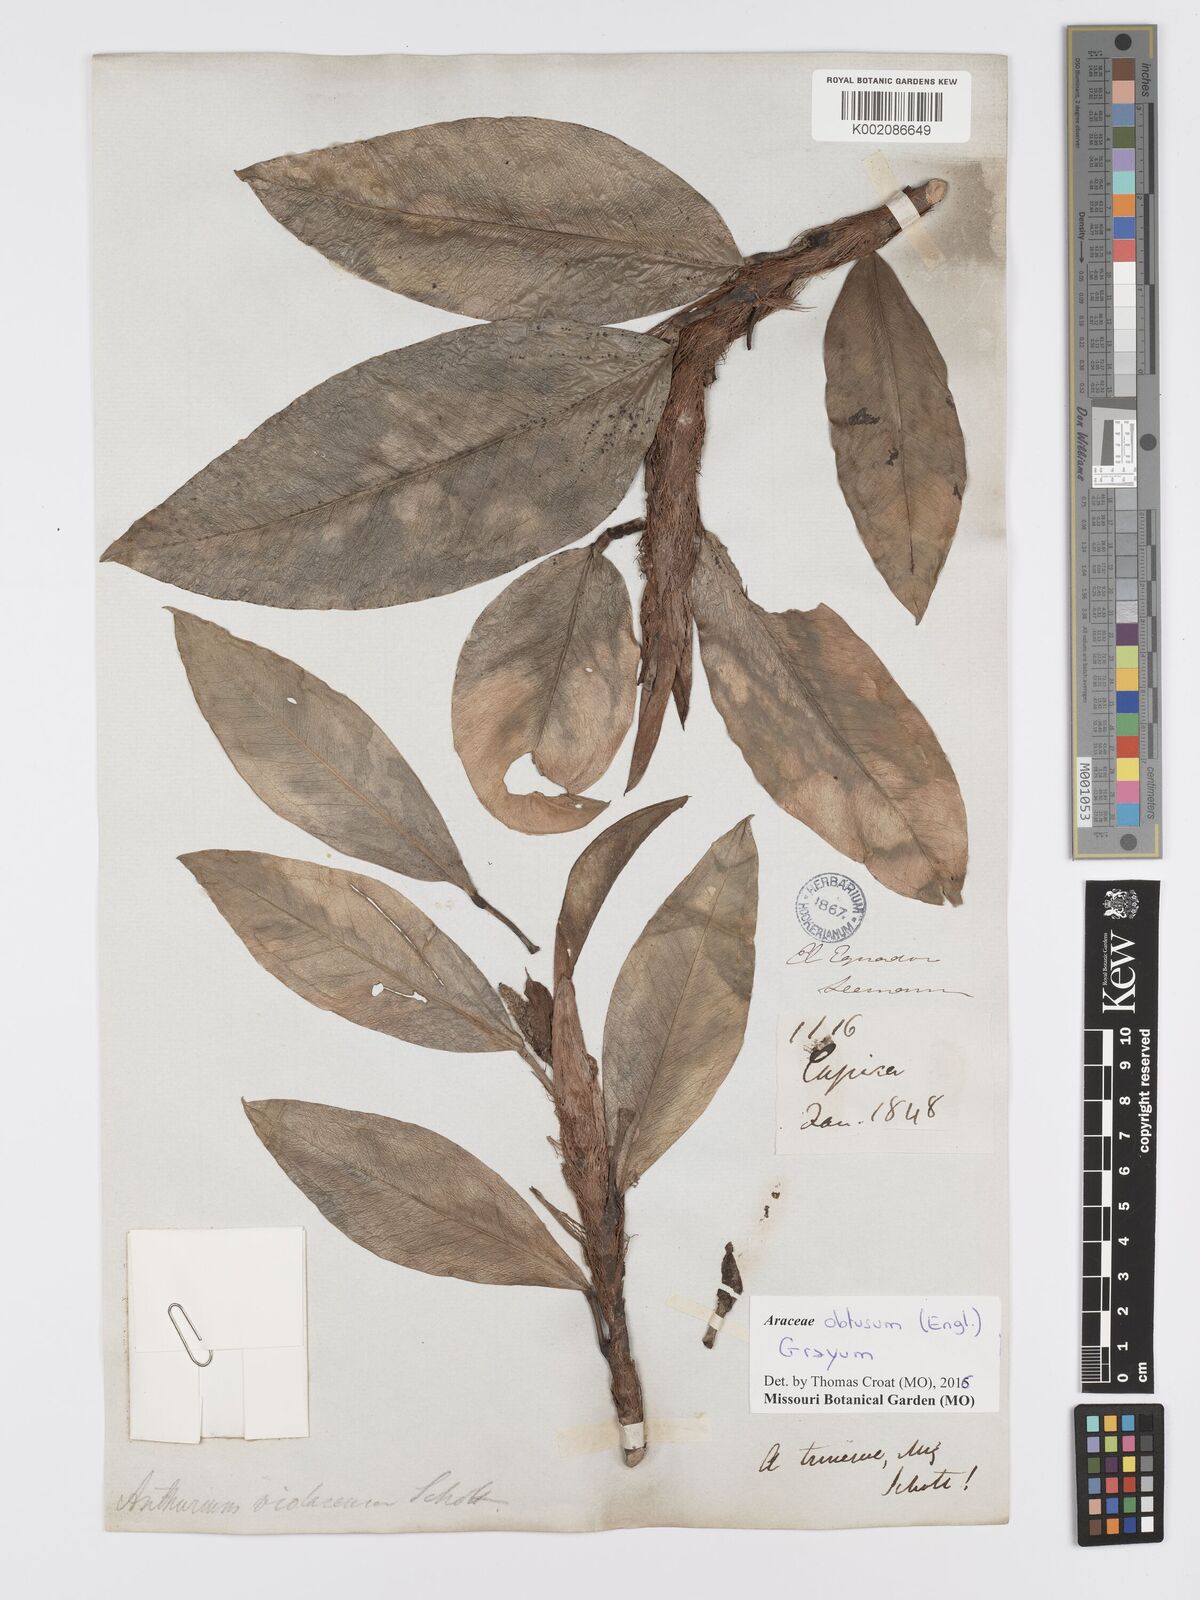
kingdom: Plantae
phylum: Tracheophyta
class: Liliopsida
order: Alismatales
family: Araceae
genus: Anthurium
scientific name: Anthurium obtusum
